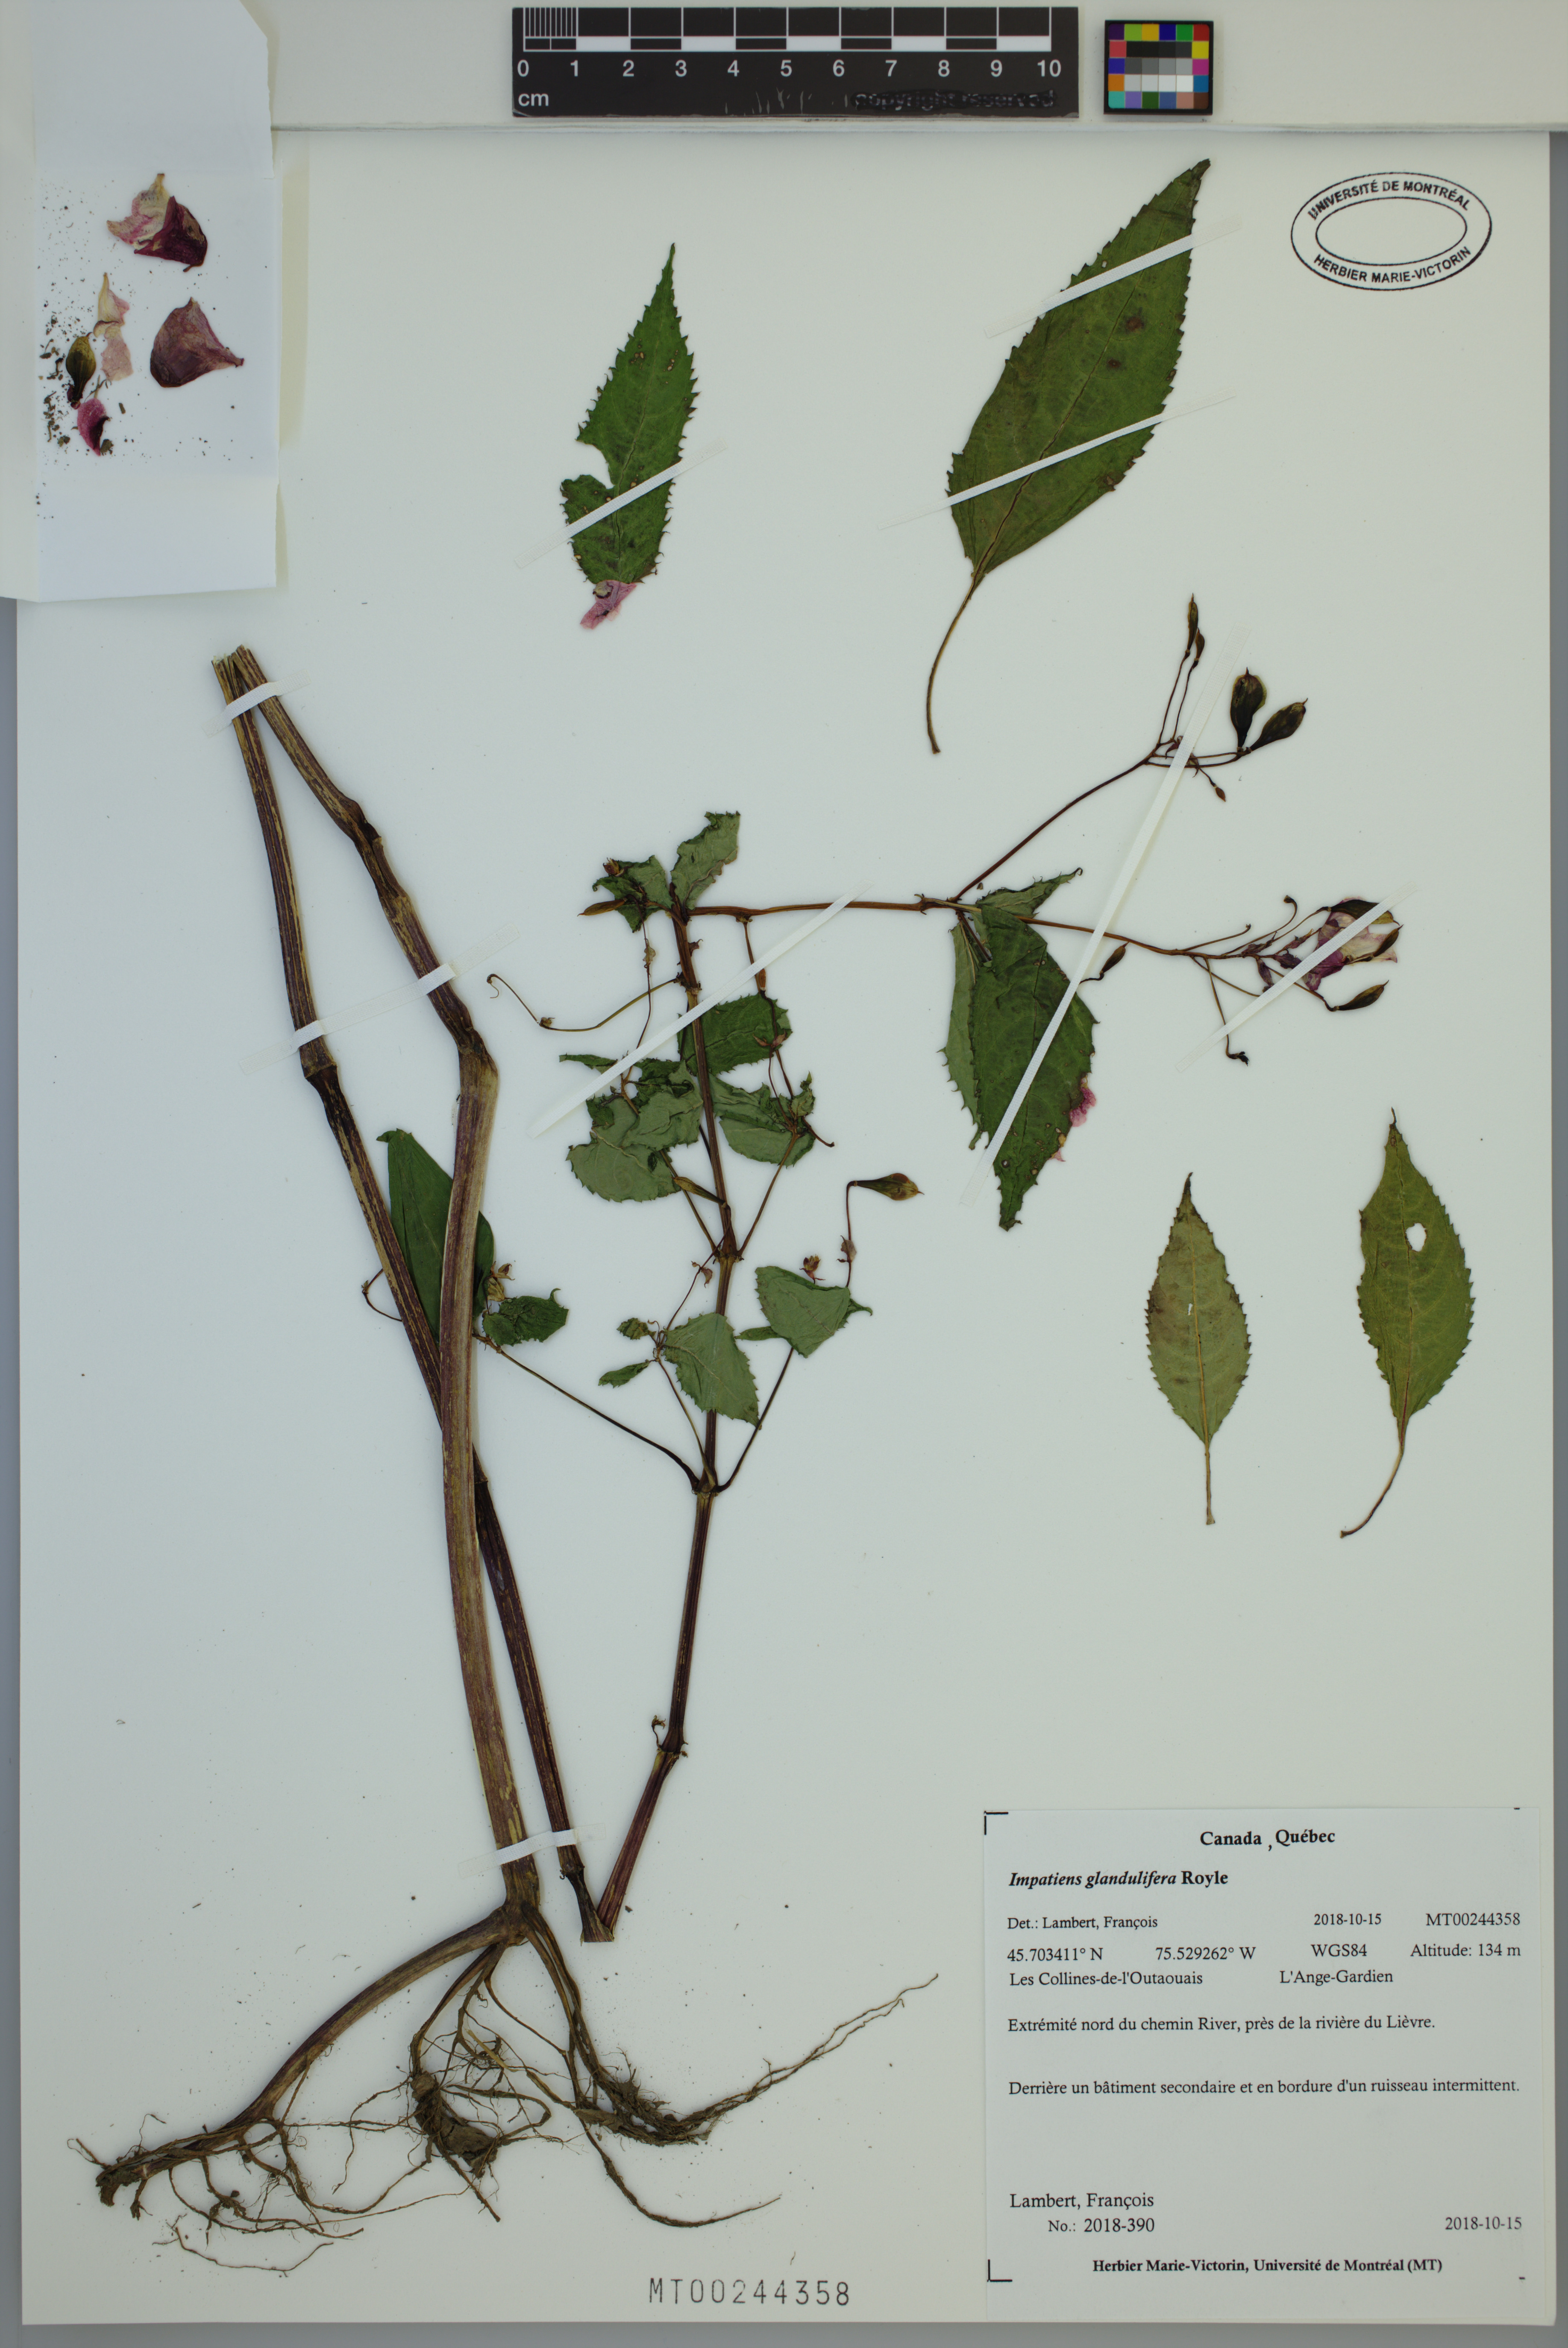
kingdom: Plantae
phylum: Tracheophyta
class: Magnoliopsida
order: Ericales
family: Balsaminaceae
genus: Impatiens
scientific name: Impatiens glandulifera
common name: Himalayan balsam
